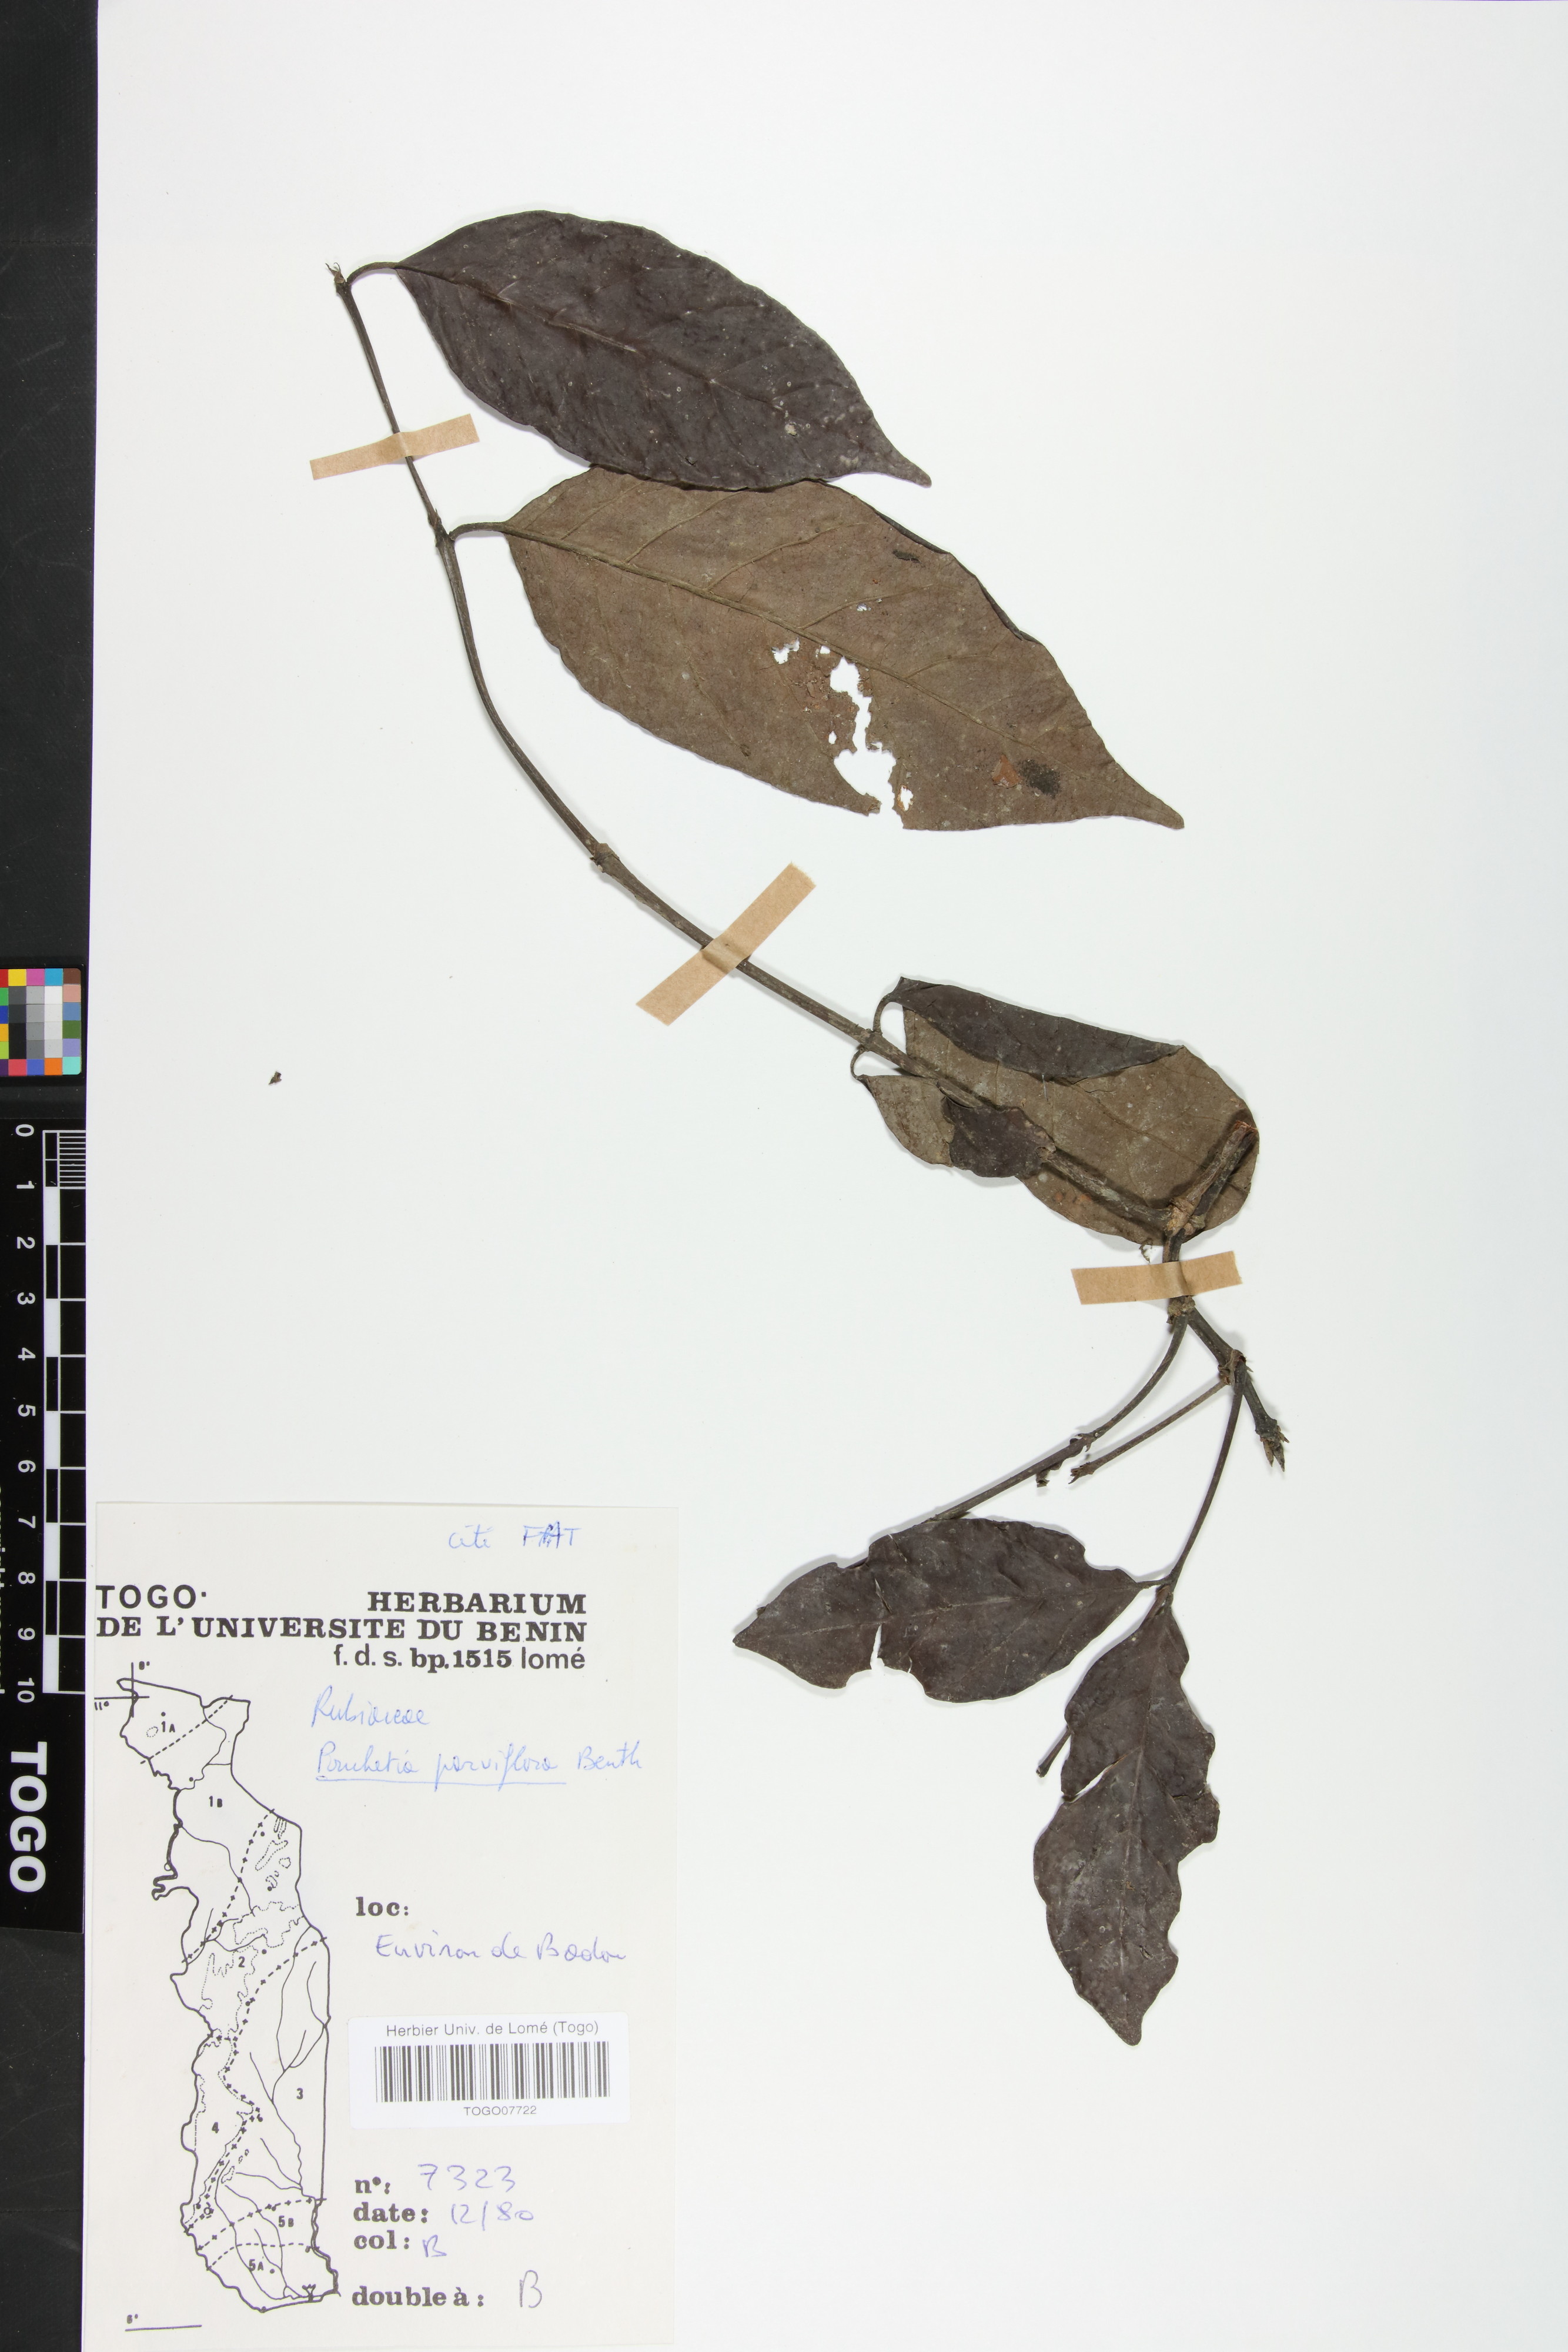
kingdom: Plantae
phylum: Tracheophyta
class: Magnoliopsida
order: Gentianales
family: Rubiaceae
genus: Pouchetia
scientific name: Pouchetia parviflora
